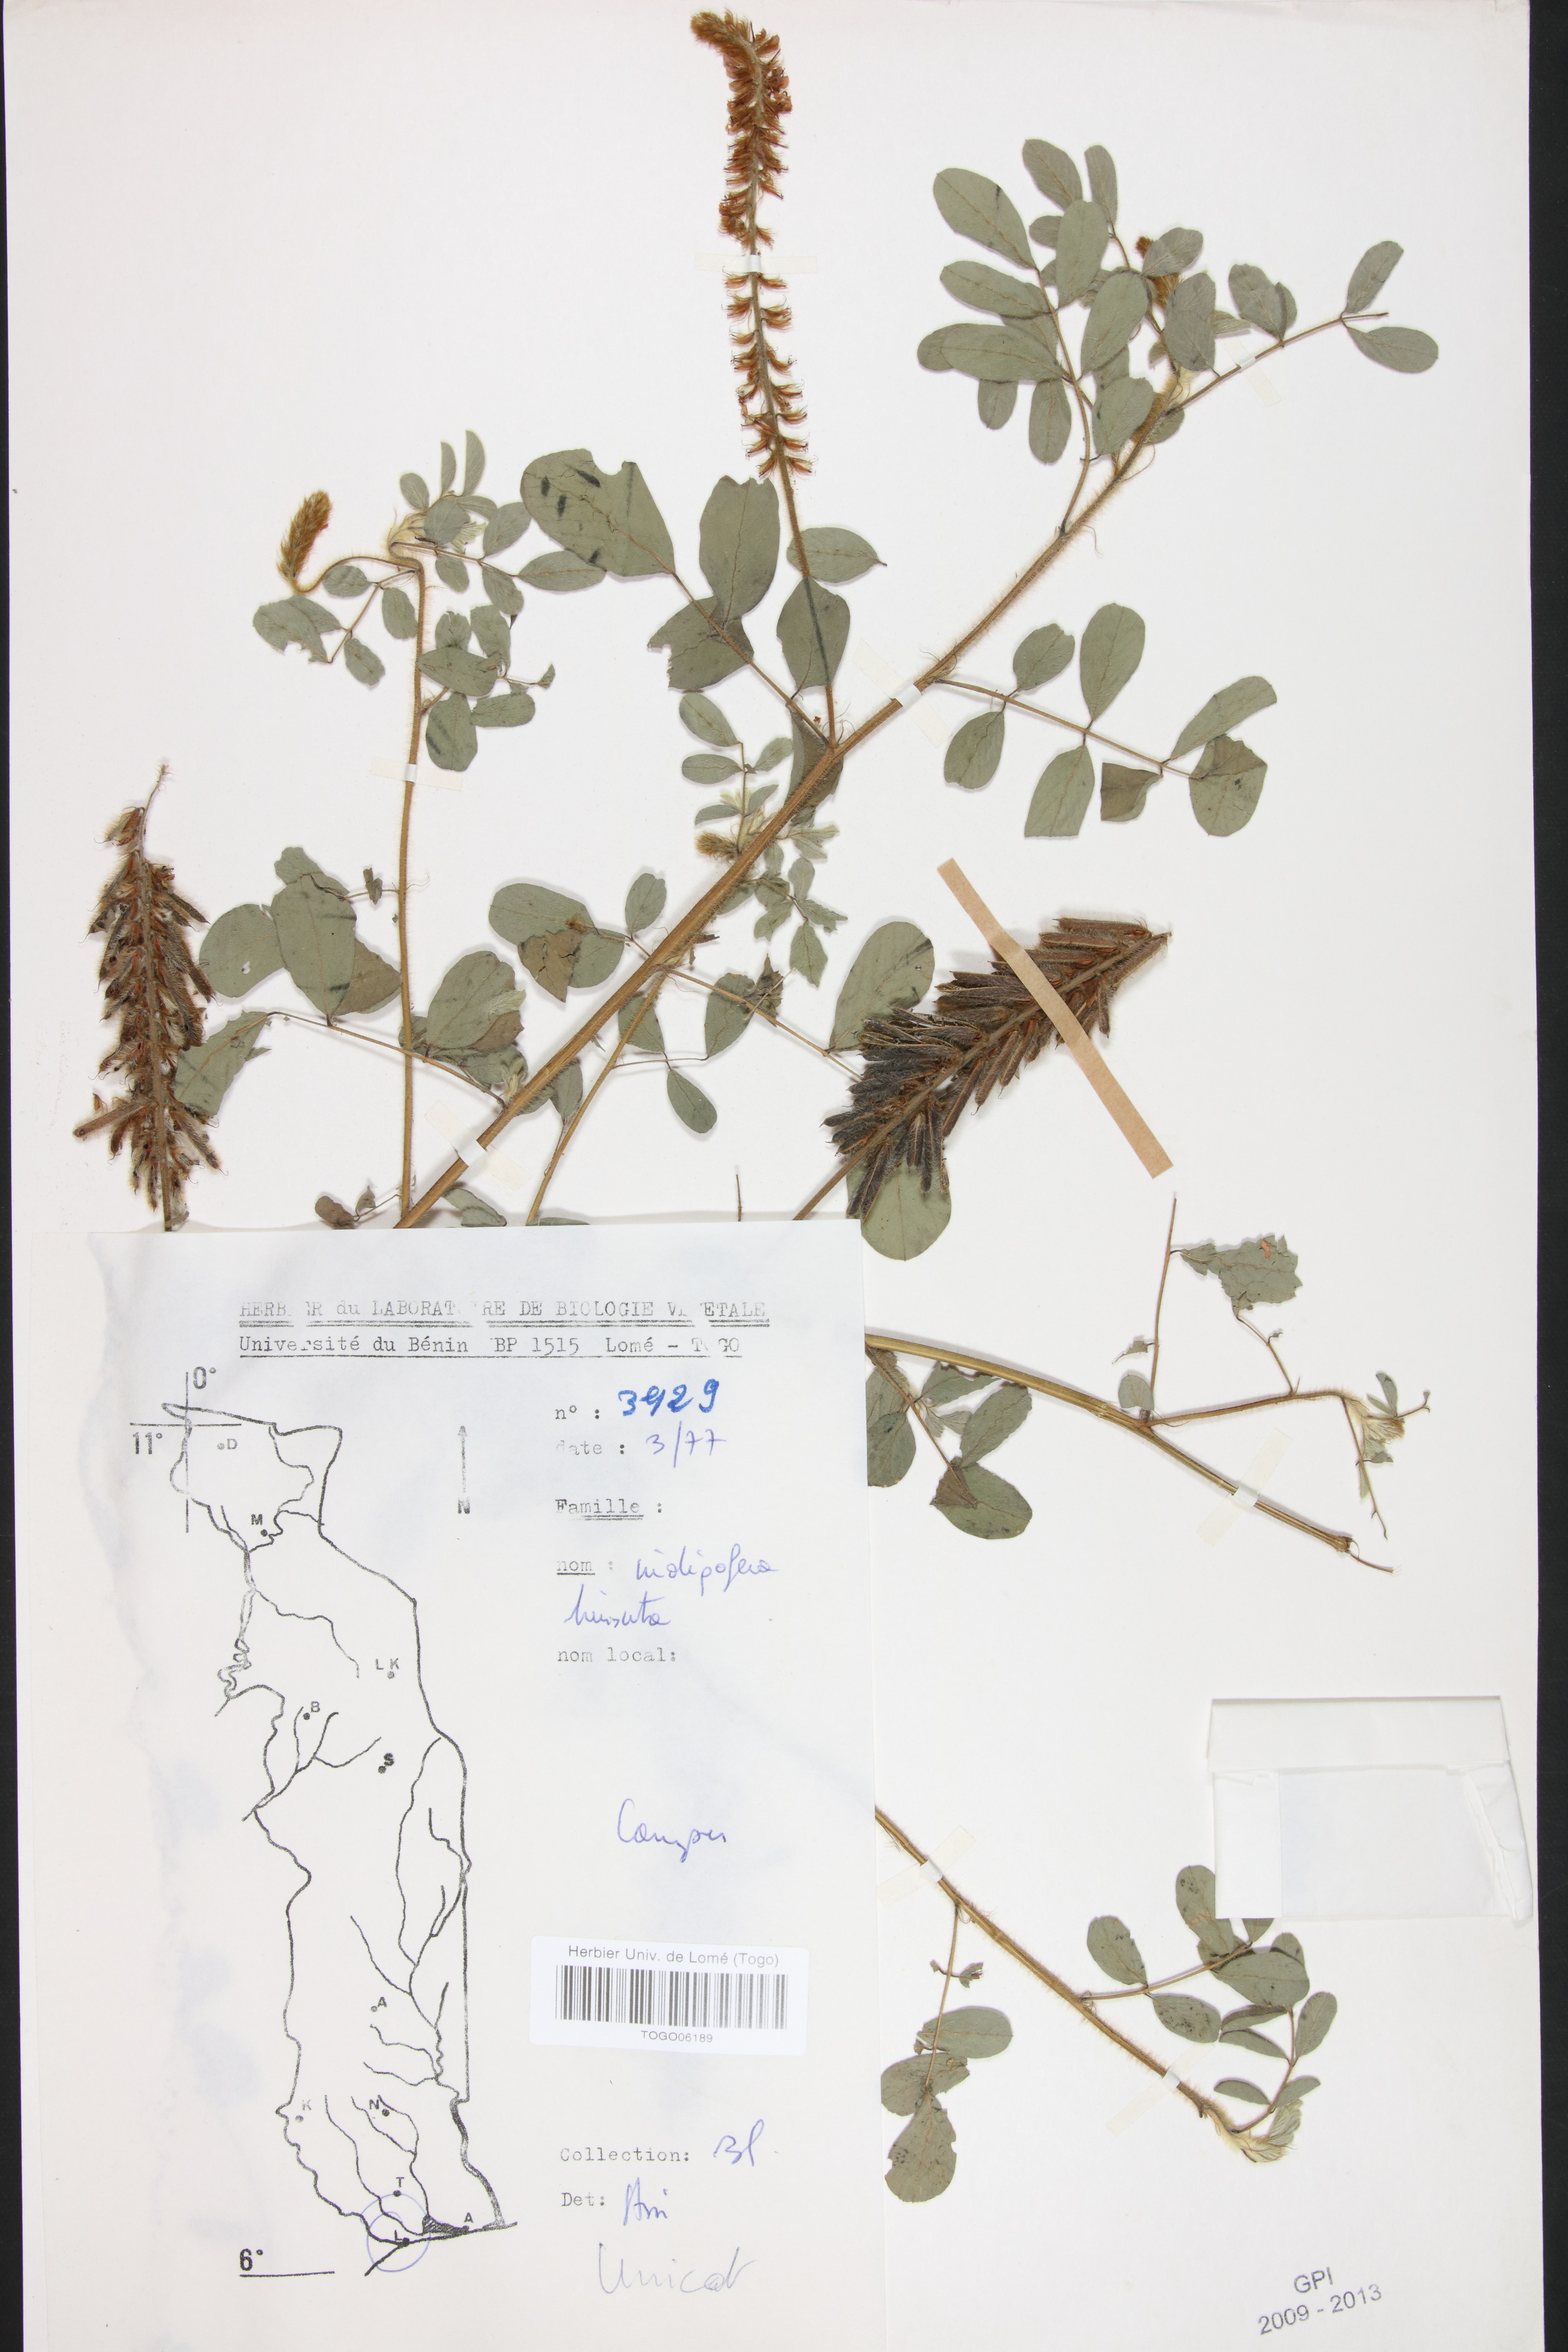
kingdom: Plantae
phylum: Tracheophyta
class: Magnoliopsida
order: Fabales
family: Fabaceae
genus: Indigofera
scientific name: Indigofera hirsuta
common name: Hairy indigo
